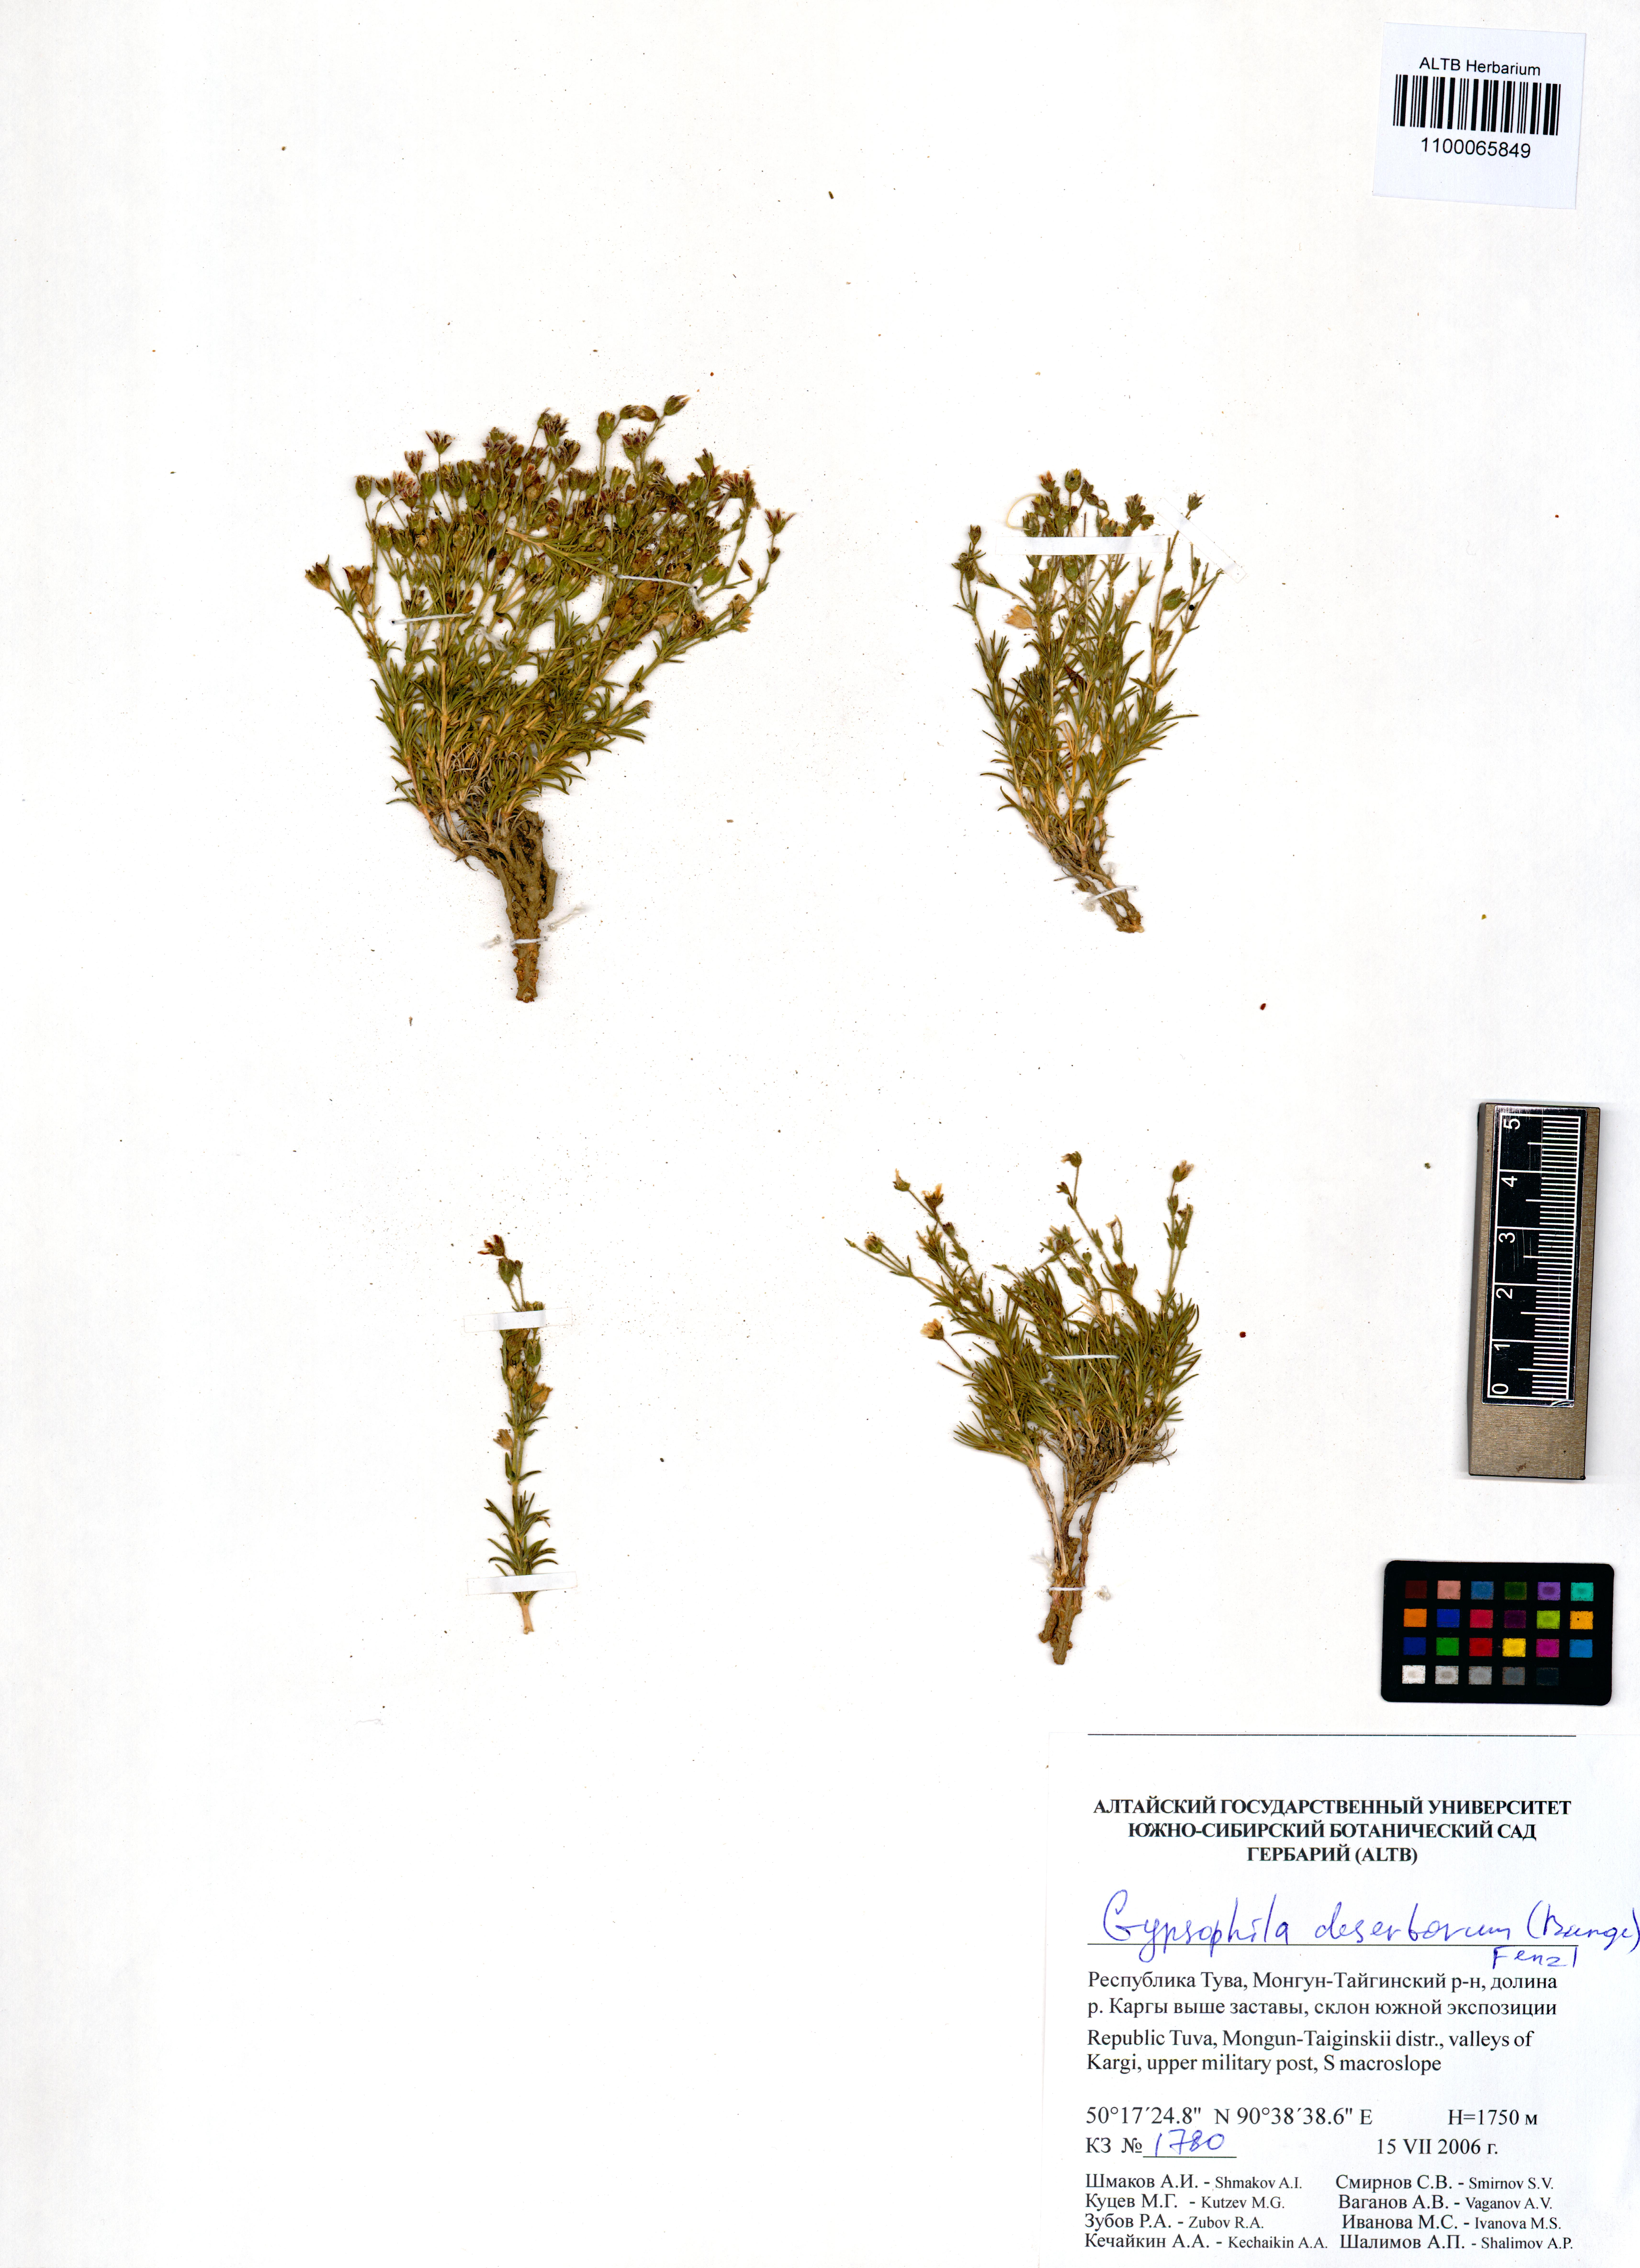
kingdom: Plantae
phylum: Tracheophyta
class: Magnoliopsida
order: Caryophyllales
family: Caryophyllaceae
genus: Heterochroa
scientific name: Heterochroa desertorum
